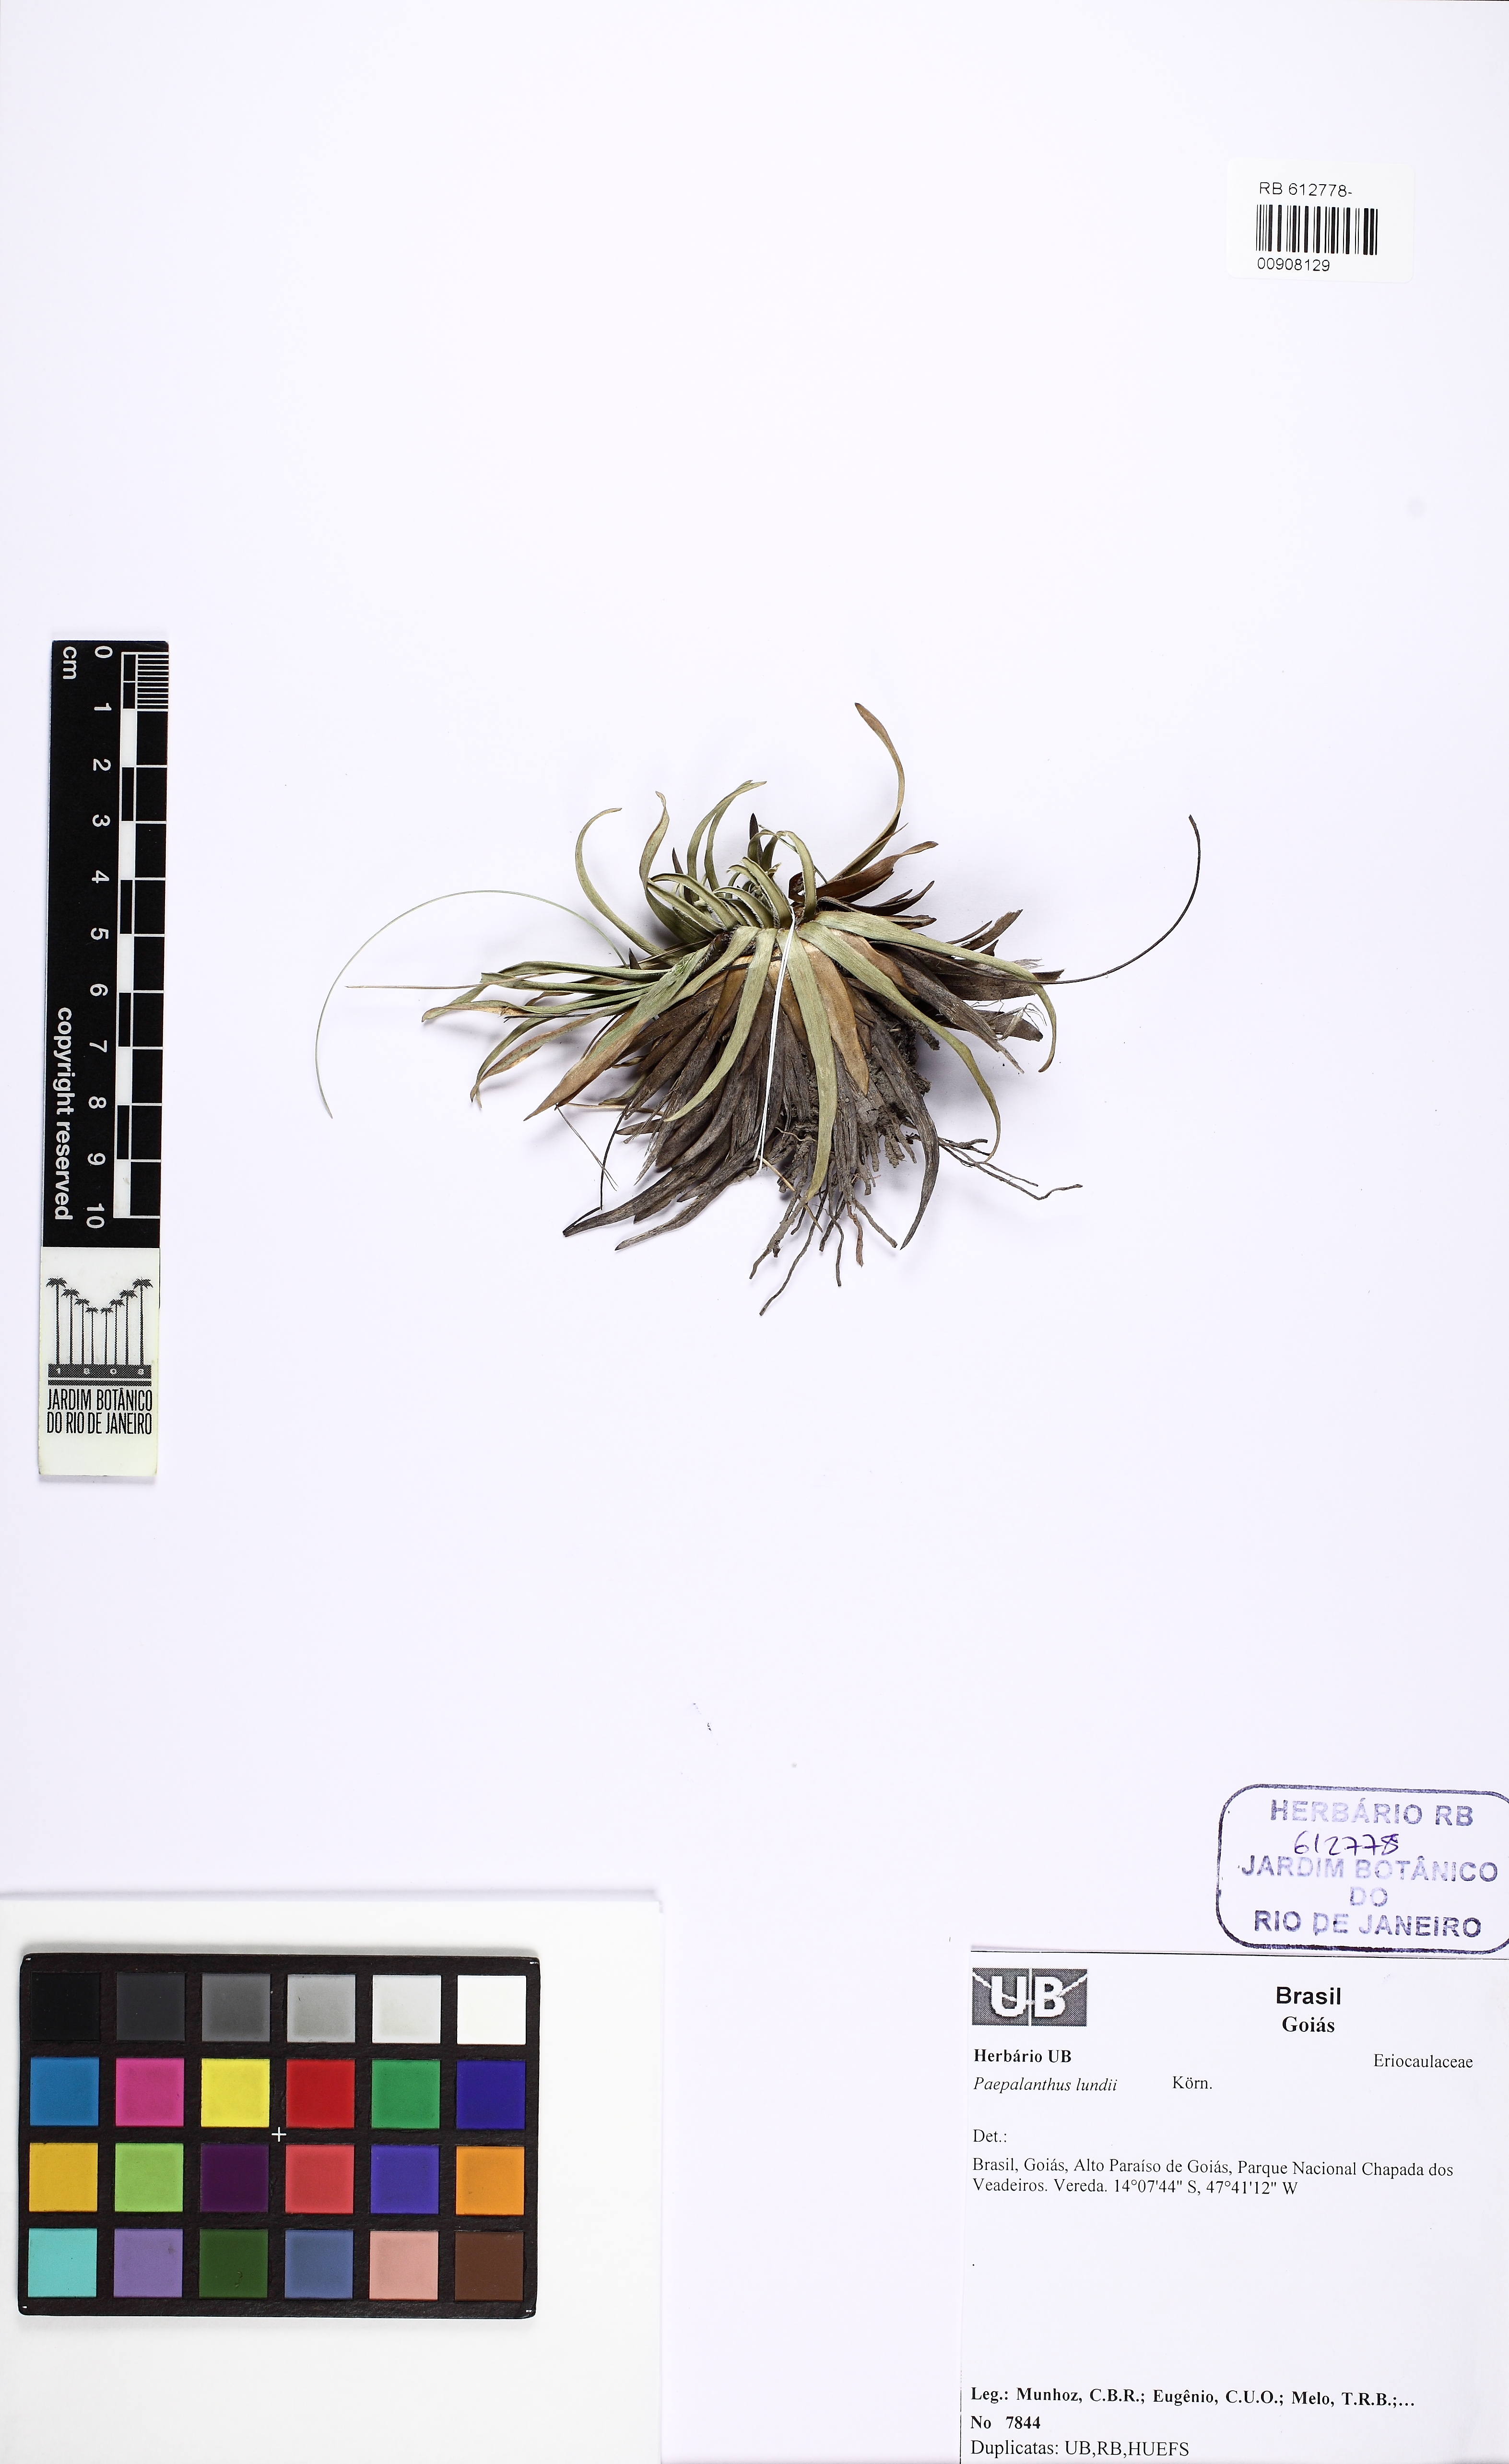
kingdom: Plantae
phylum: Tracheophyta
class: Liliopsida
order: Poales
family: Eriocaulaceae
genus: Paepalanthus
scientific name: Paepalanthus scholiophyllus
